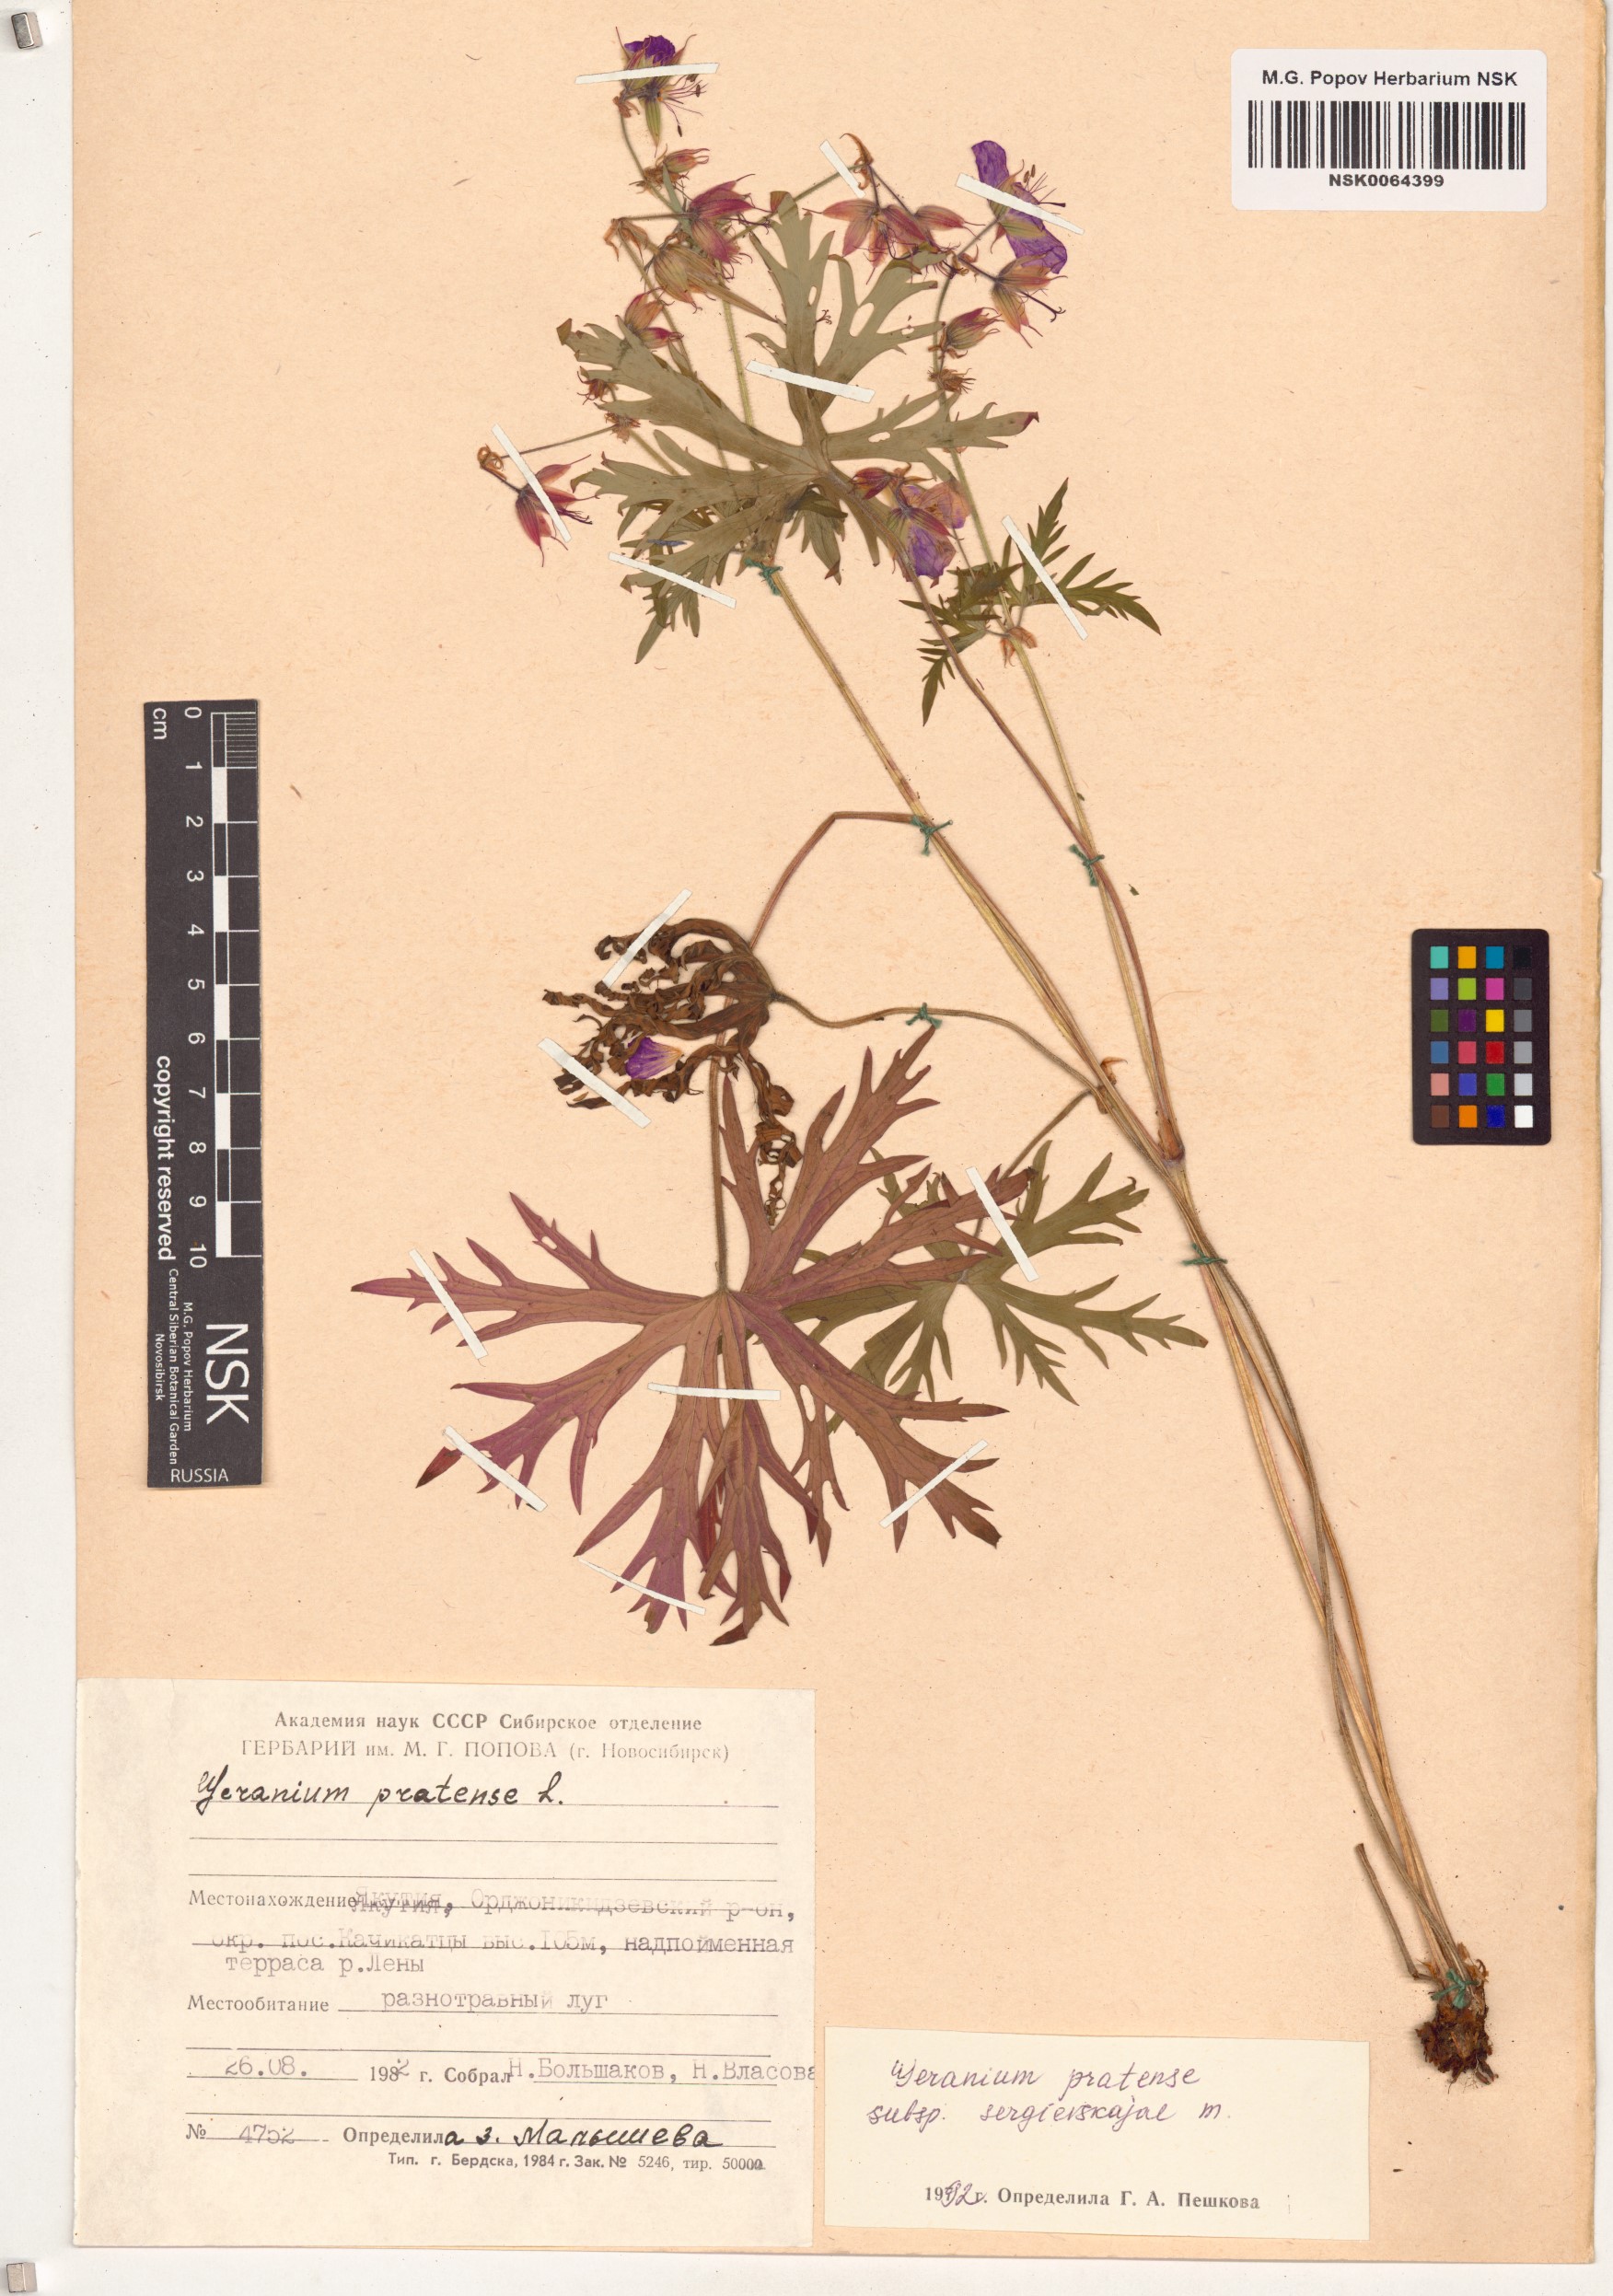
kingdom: Plantae
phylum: Tracheophyta
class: Magnoliopsida
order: Geraniales
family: Geraniaceae
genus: Geranium
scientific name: Geranium pratense
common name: Meadow crane's-bill
